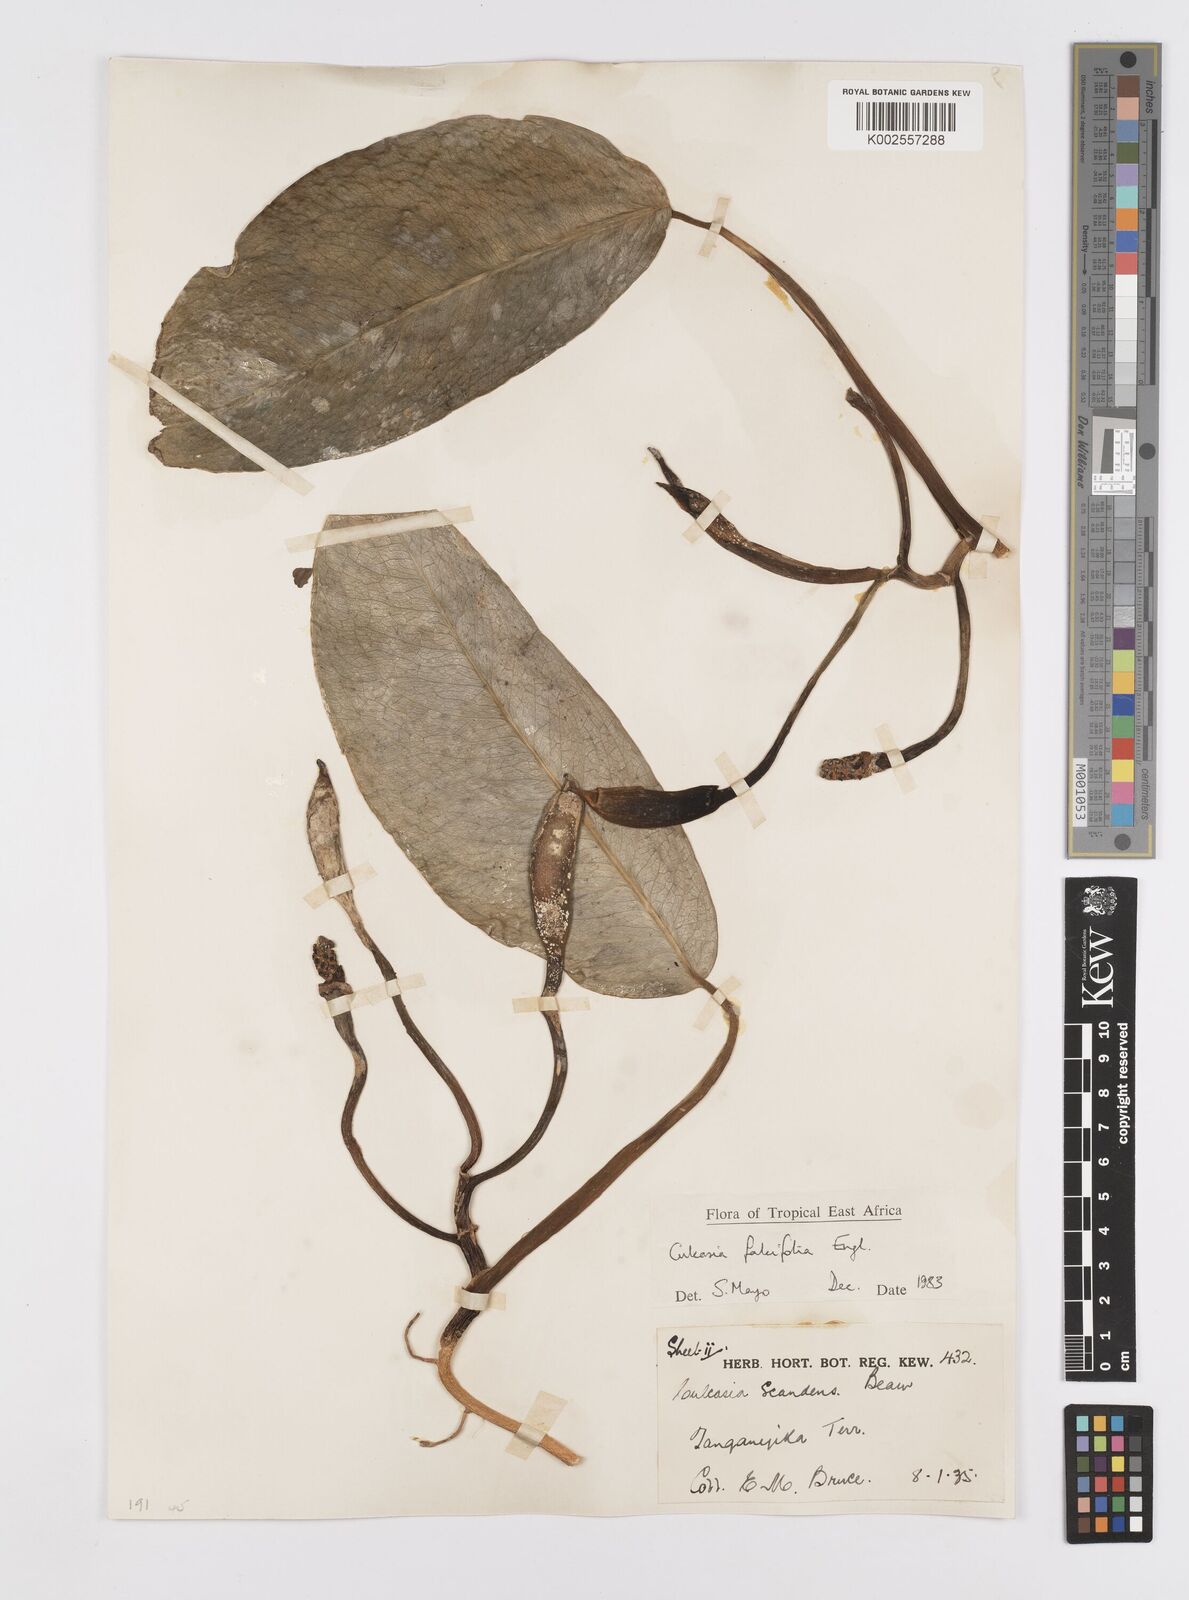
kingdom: Plantae
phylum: Tracheophyta
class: Liliopsida
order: Alismatales
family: Araceae
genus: Culcasia
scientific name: Culcasia falcifolia
